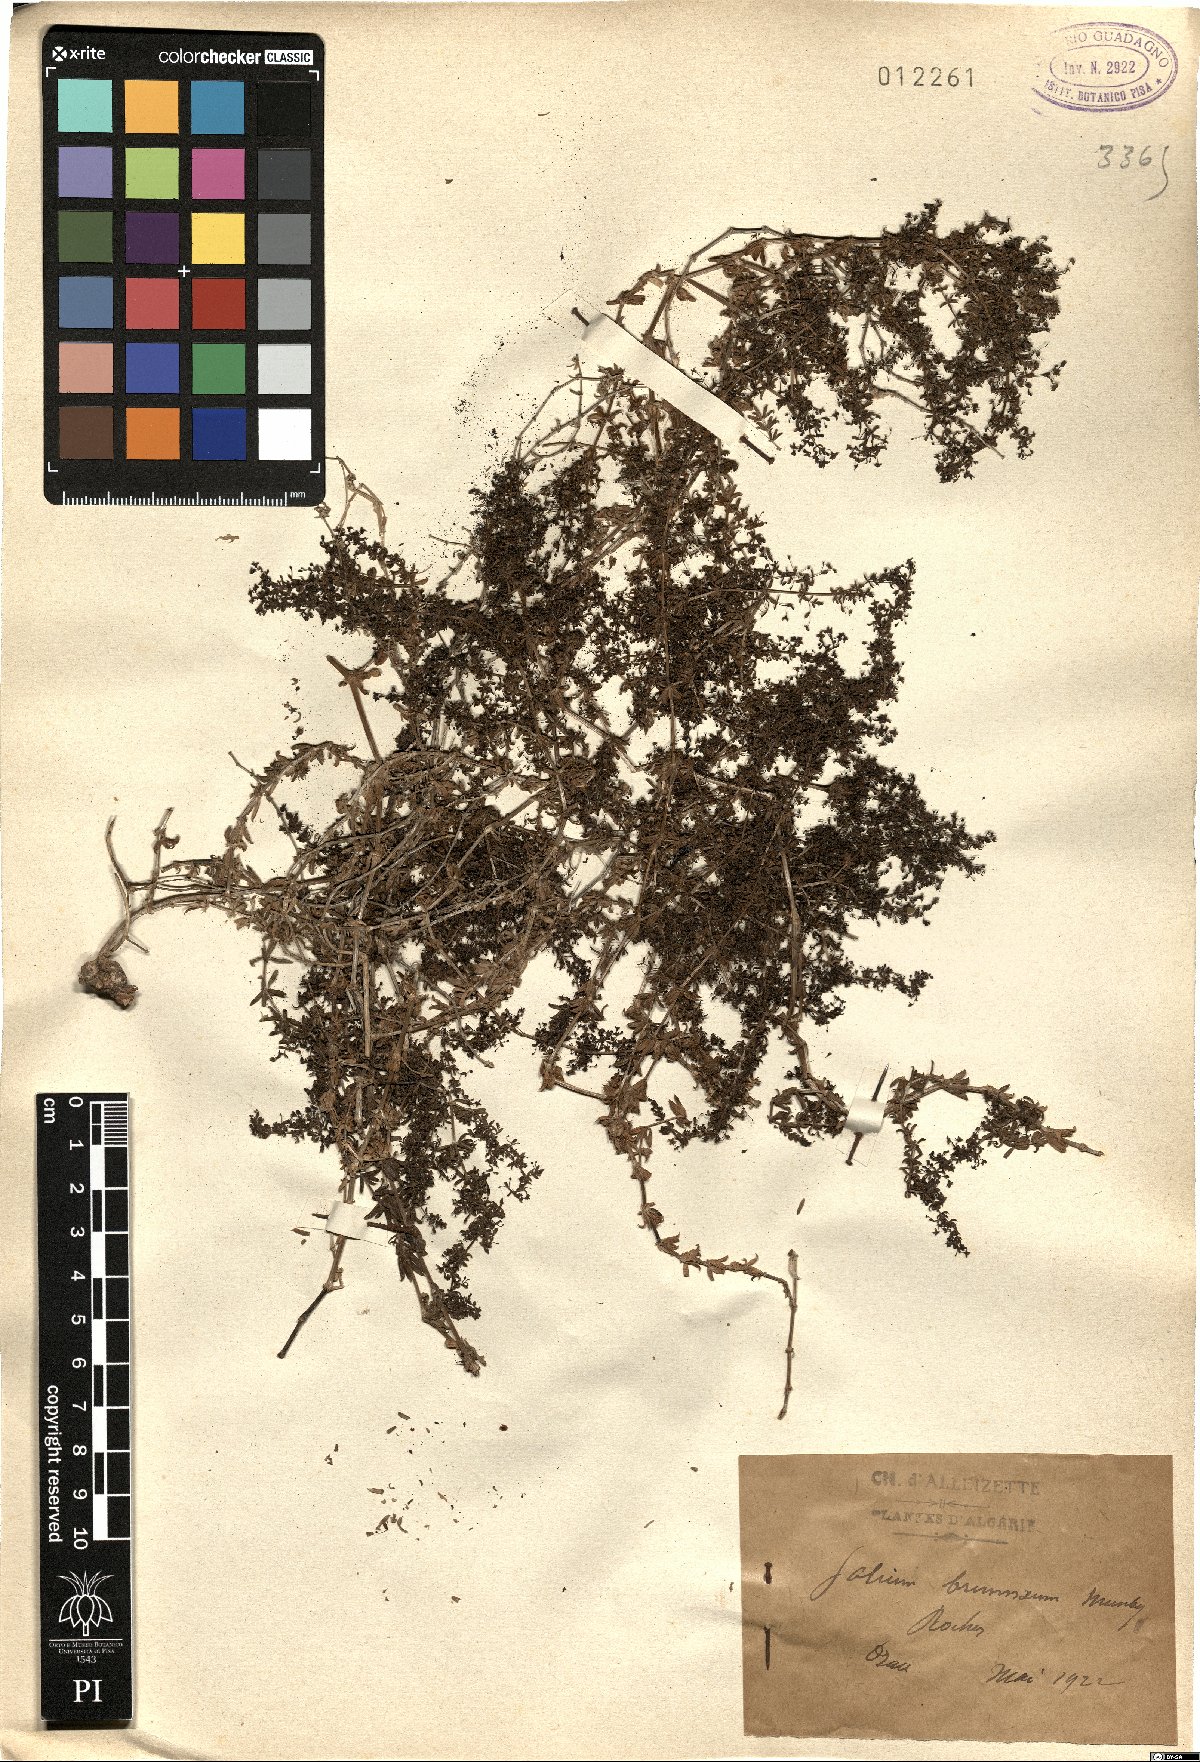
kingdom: Plantae
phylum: Tracheophyta
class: Magnoliopsida
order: Gentianales
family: Rubiaceae
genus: Galium
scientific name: Galium brunneum
